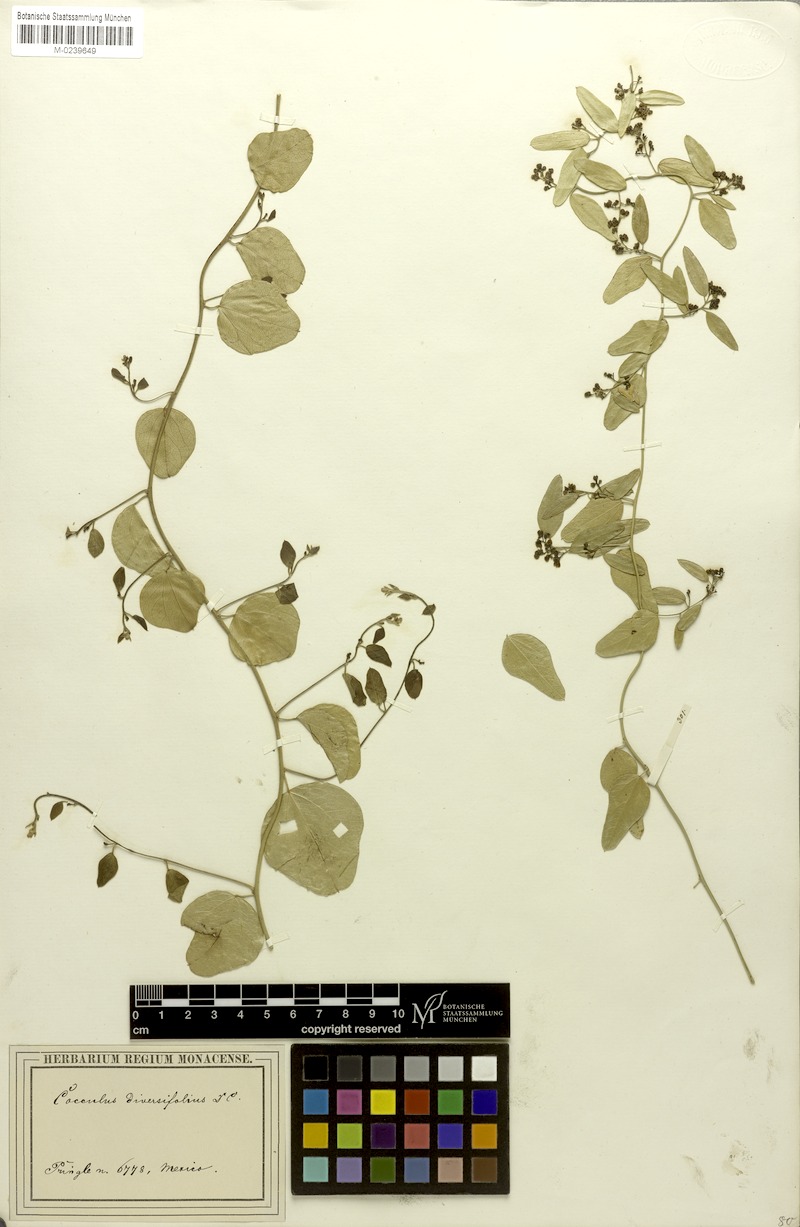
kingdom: Plantae
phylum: Tracheophyta
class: Magnoliopsida
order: Ranunculales
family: Menispermaceae
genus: Cocculus
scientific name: Cocculus diversifolius
